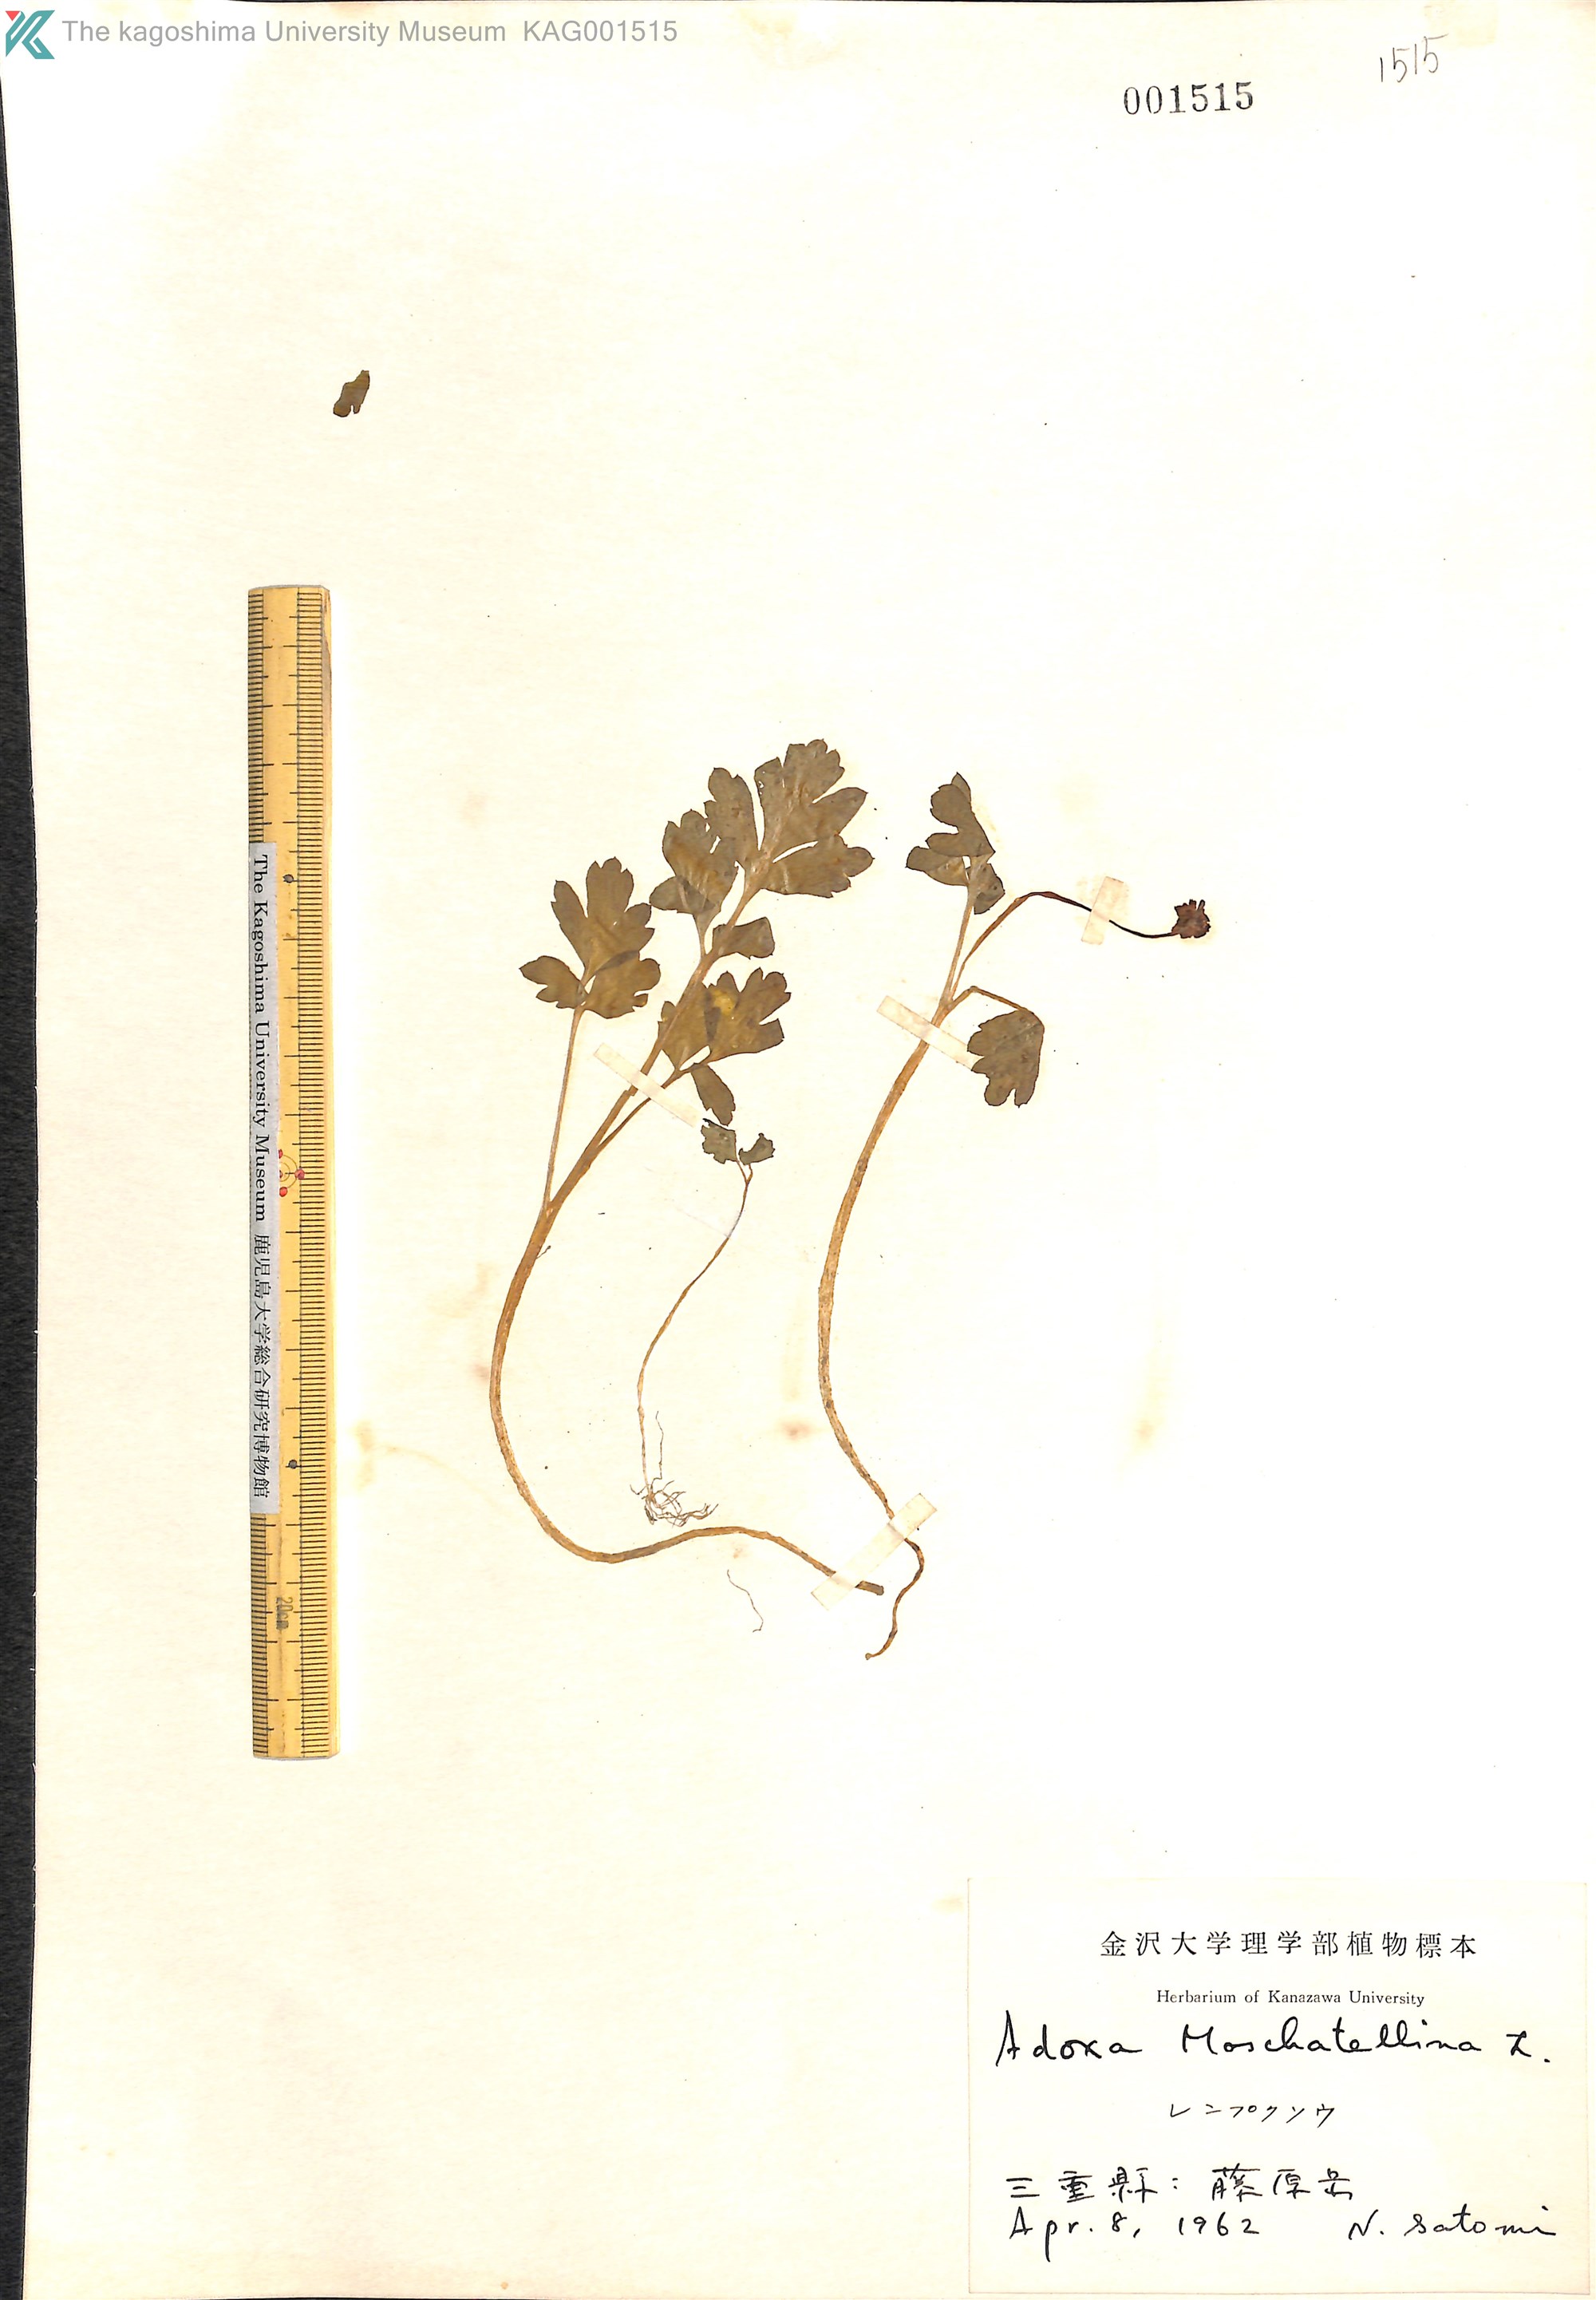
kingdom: Plantae
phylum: Tracheophyta
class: Magnoliopsida
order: Dipsacales
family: Viburnaceae
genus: Adoxa
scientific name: Adoxa moschatellina
